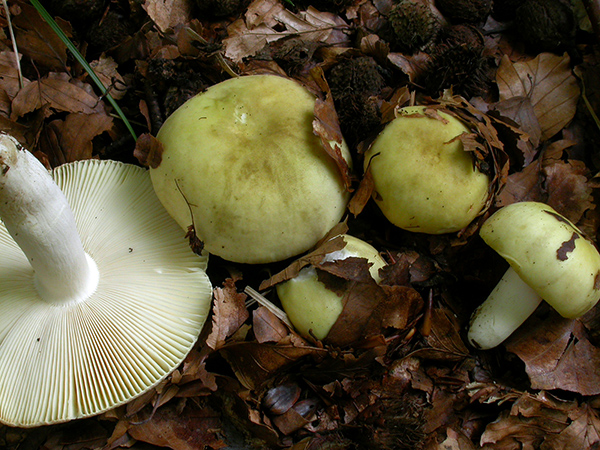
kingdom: Fungi
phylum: Basidiomycota
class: Agaricomycetes
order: Russulales
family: Russulaceae
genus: Russula
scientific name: Russula violeipes
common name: ferskengul skørhat
